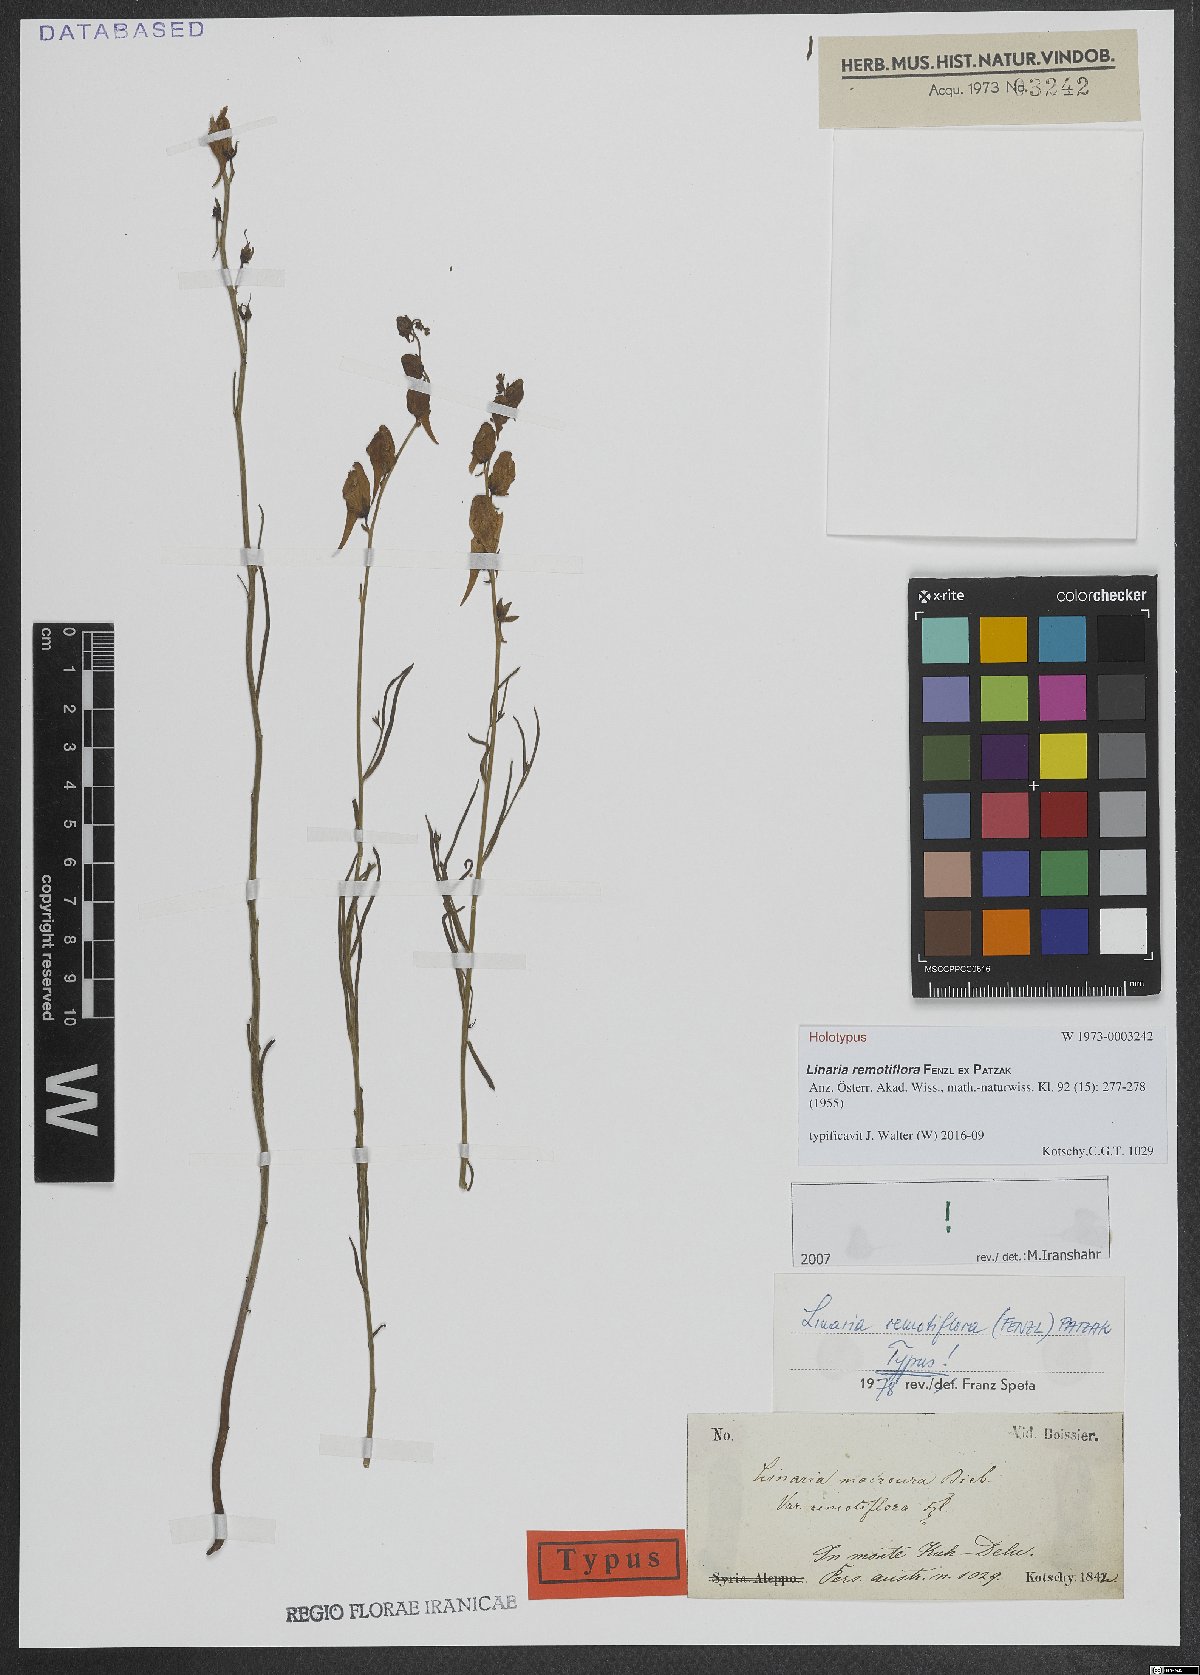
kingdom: Plantae
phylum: Tracheophyta
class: Magnoliopsida
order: Lamiales
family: Plantaginaceae
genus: Linaria
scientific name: Linaria remotiflora
